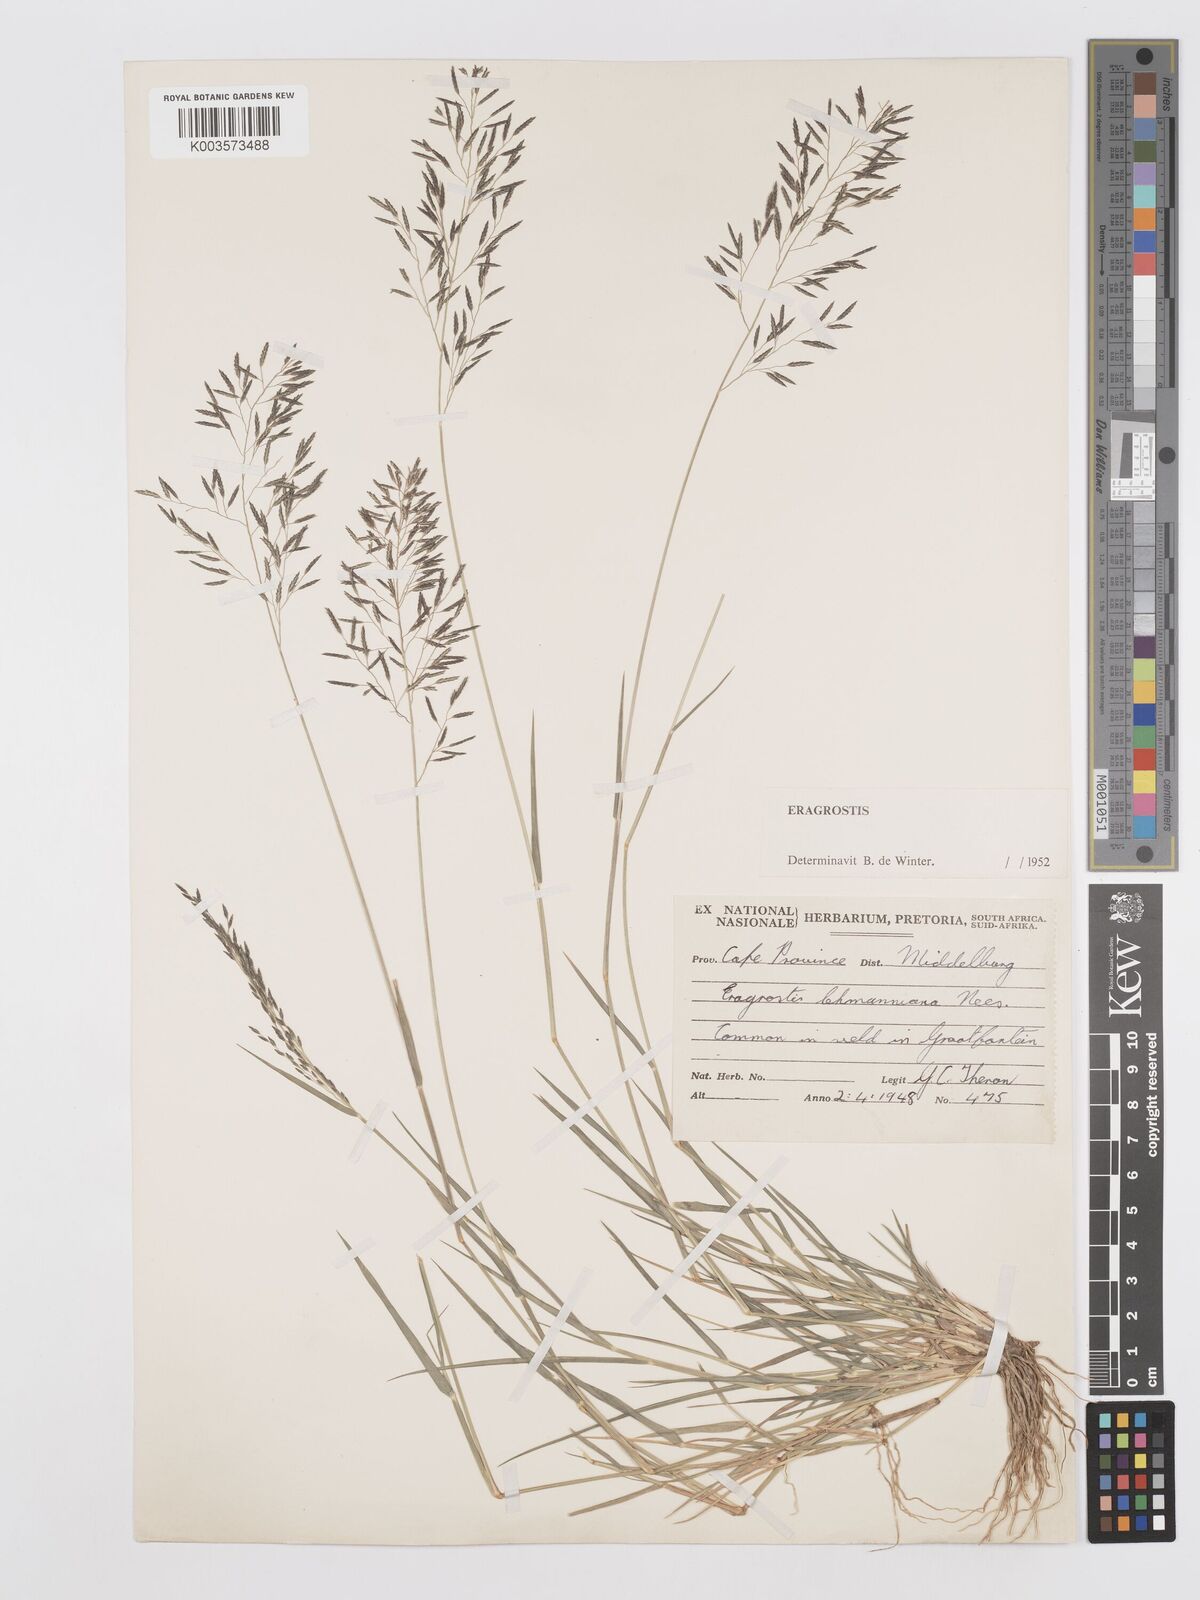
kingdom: Plantae
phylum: Tracheophyta
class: Liliopsida
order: Poales
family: Poaceae
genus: Eragrostis
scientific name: Eragrostis lehmanniana
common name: Lehmann lovegrass
